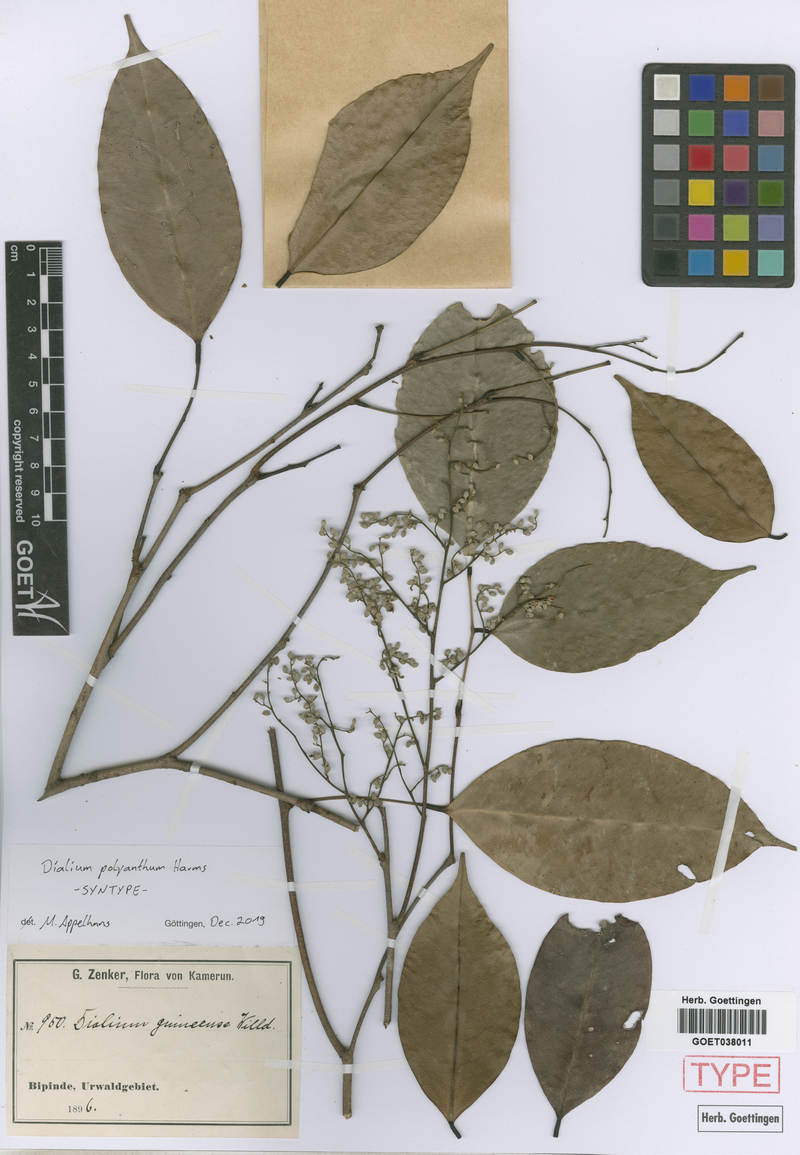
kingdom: Plantae
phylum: Tracheophyta
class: Magnoliopsida
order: Fabales
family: Fabaceae
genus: Dialium
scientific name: Dialium guineense
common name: Sierra leone-tamarind
